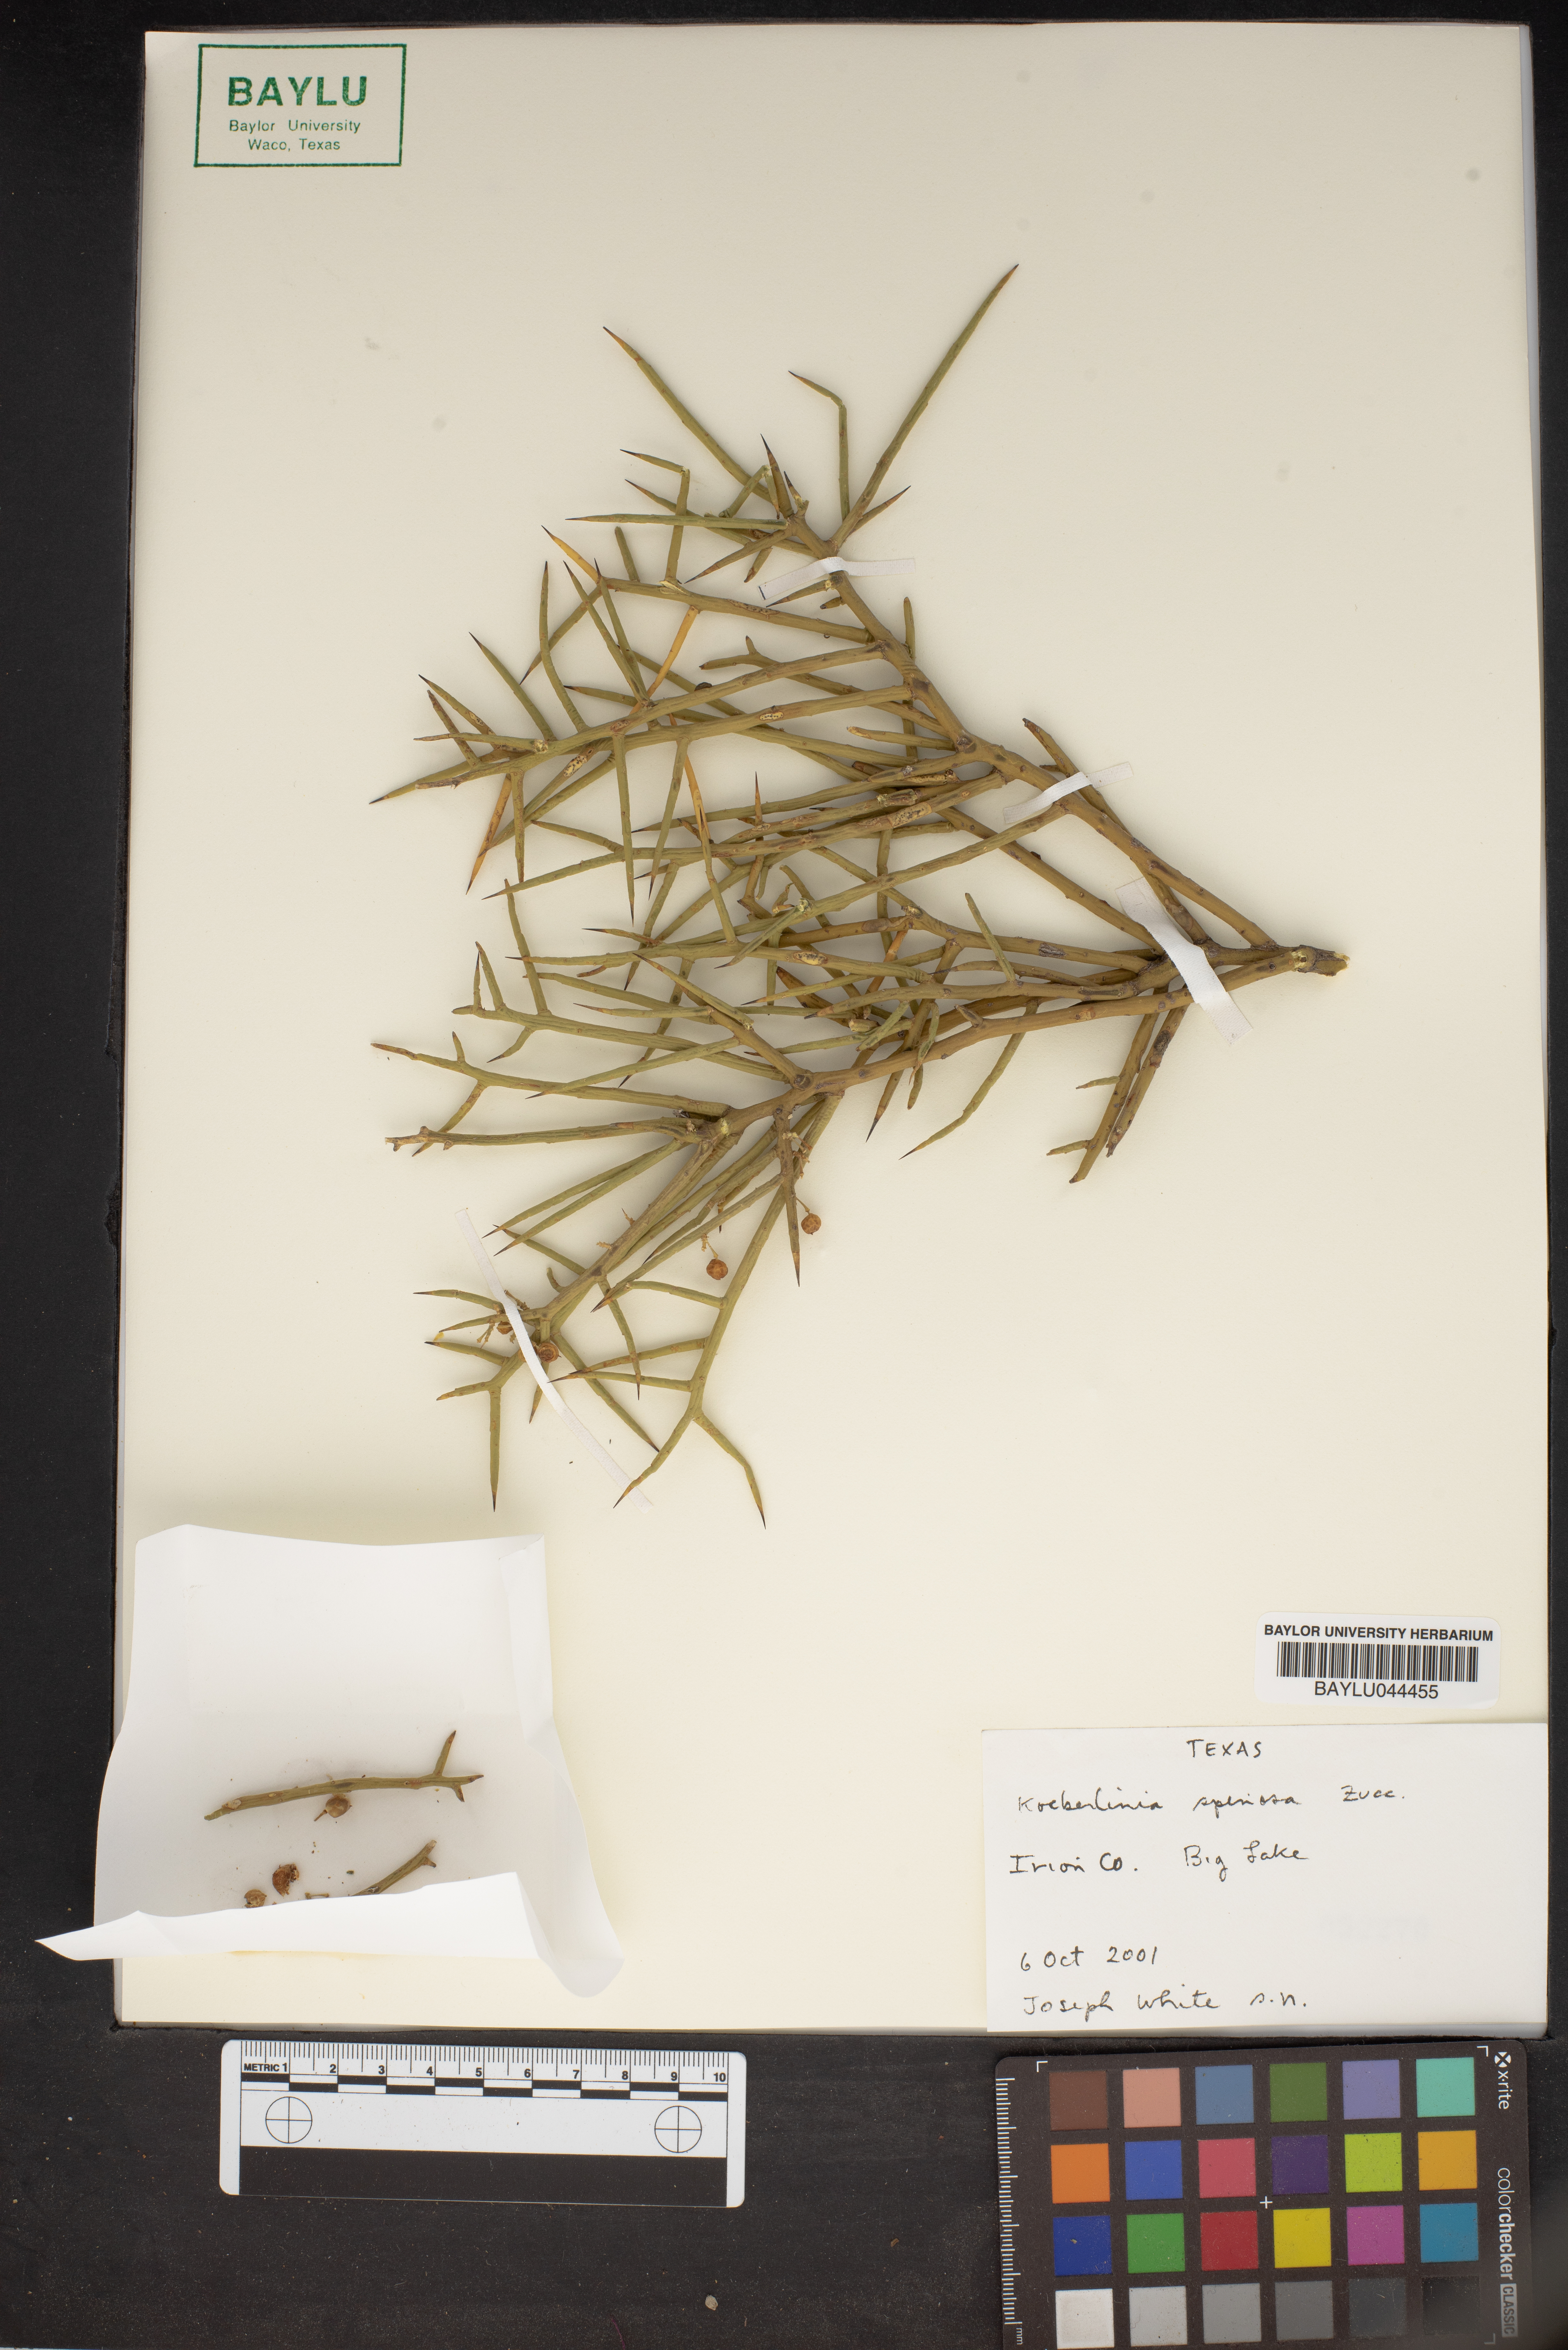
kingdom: Plantae
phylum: Tracheophyta
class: Magnoliopsida
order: Brassicales
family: Koeberliniaceae
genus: Koeberlinia
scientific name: Koeberlinia spinosa
